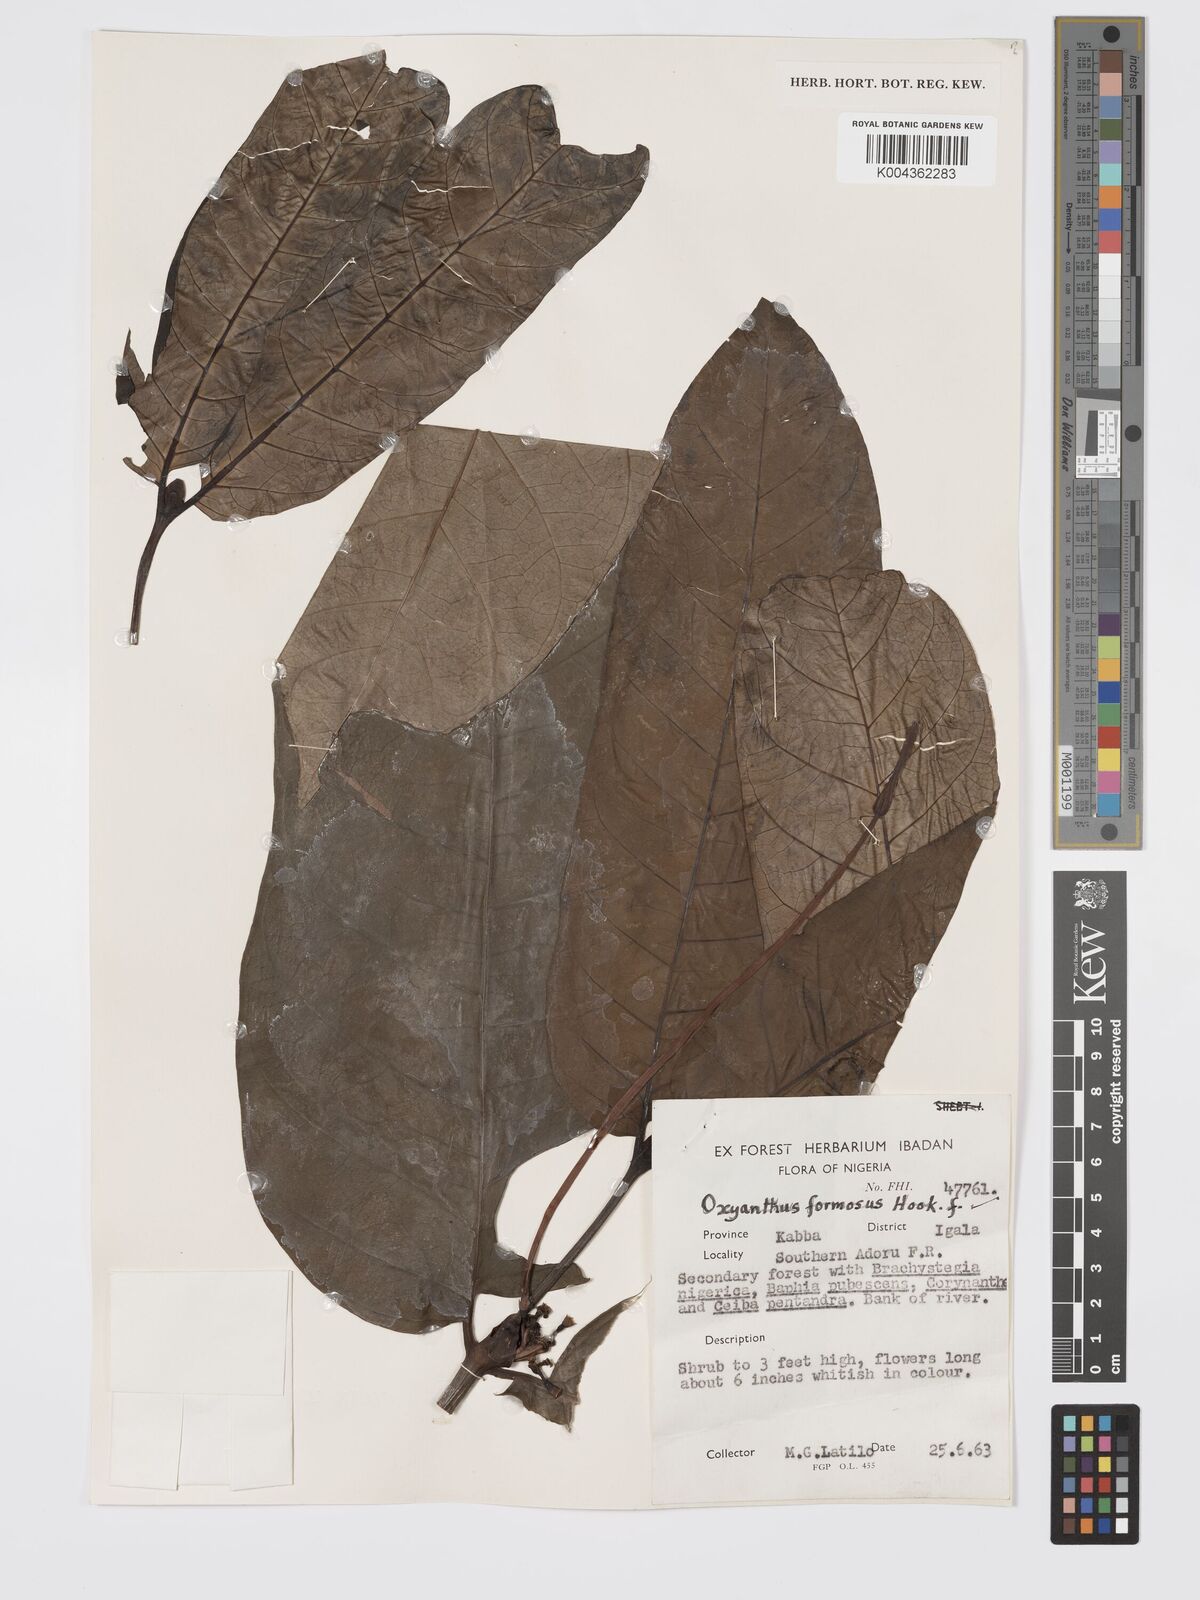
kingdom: Plantae
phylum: Tracheophyta
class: Magnoliopsida
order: Gentianales
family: Rubiaceae
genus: Oxyanthus
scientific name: Oxyanthus formosus
